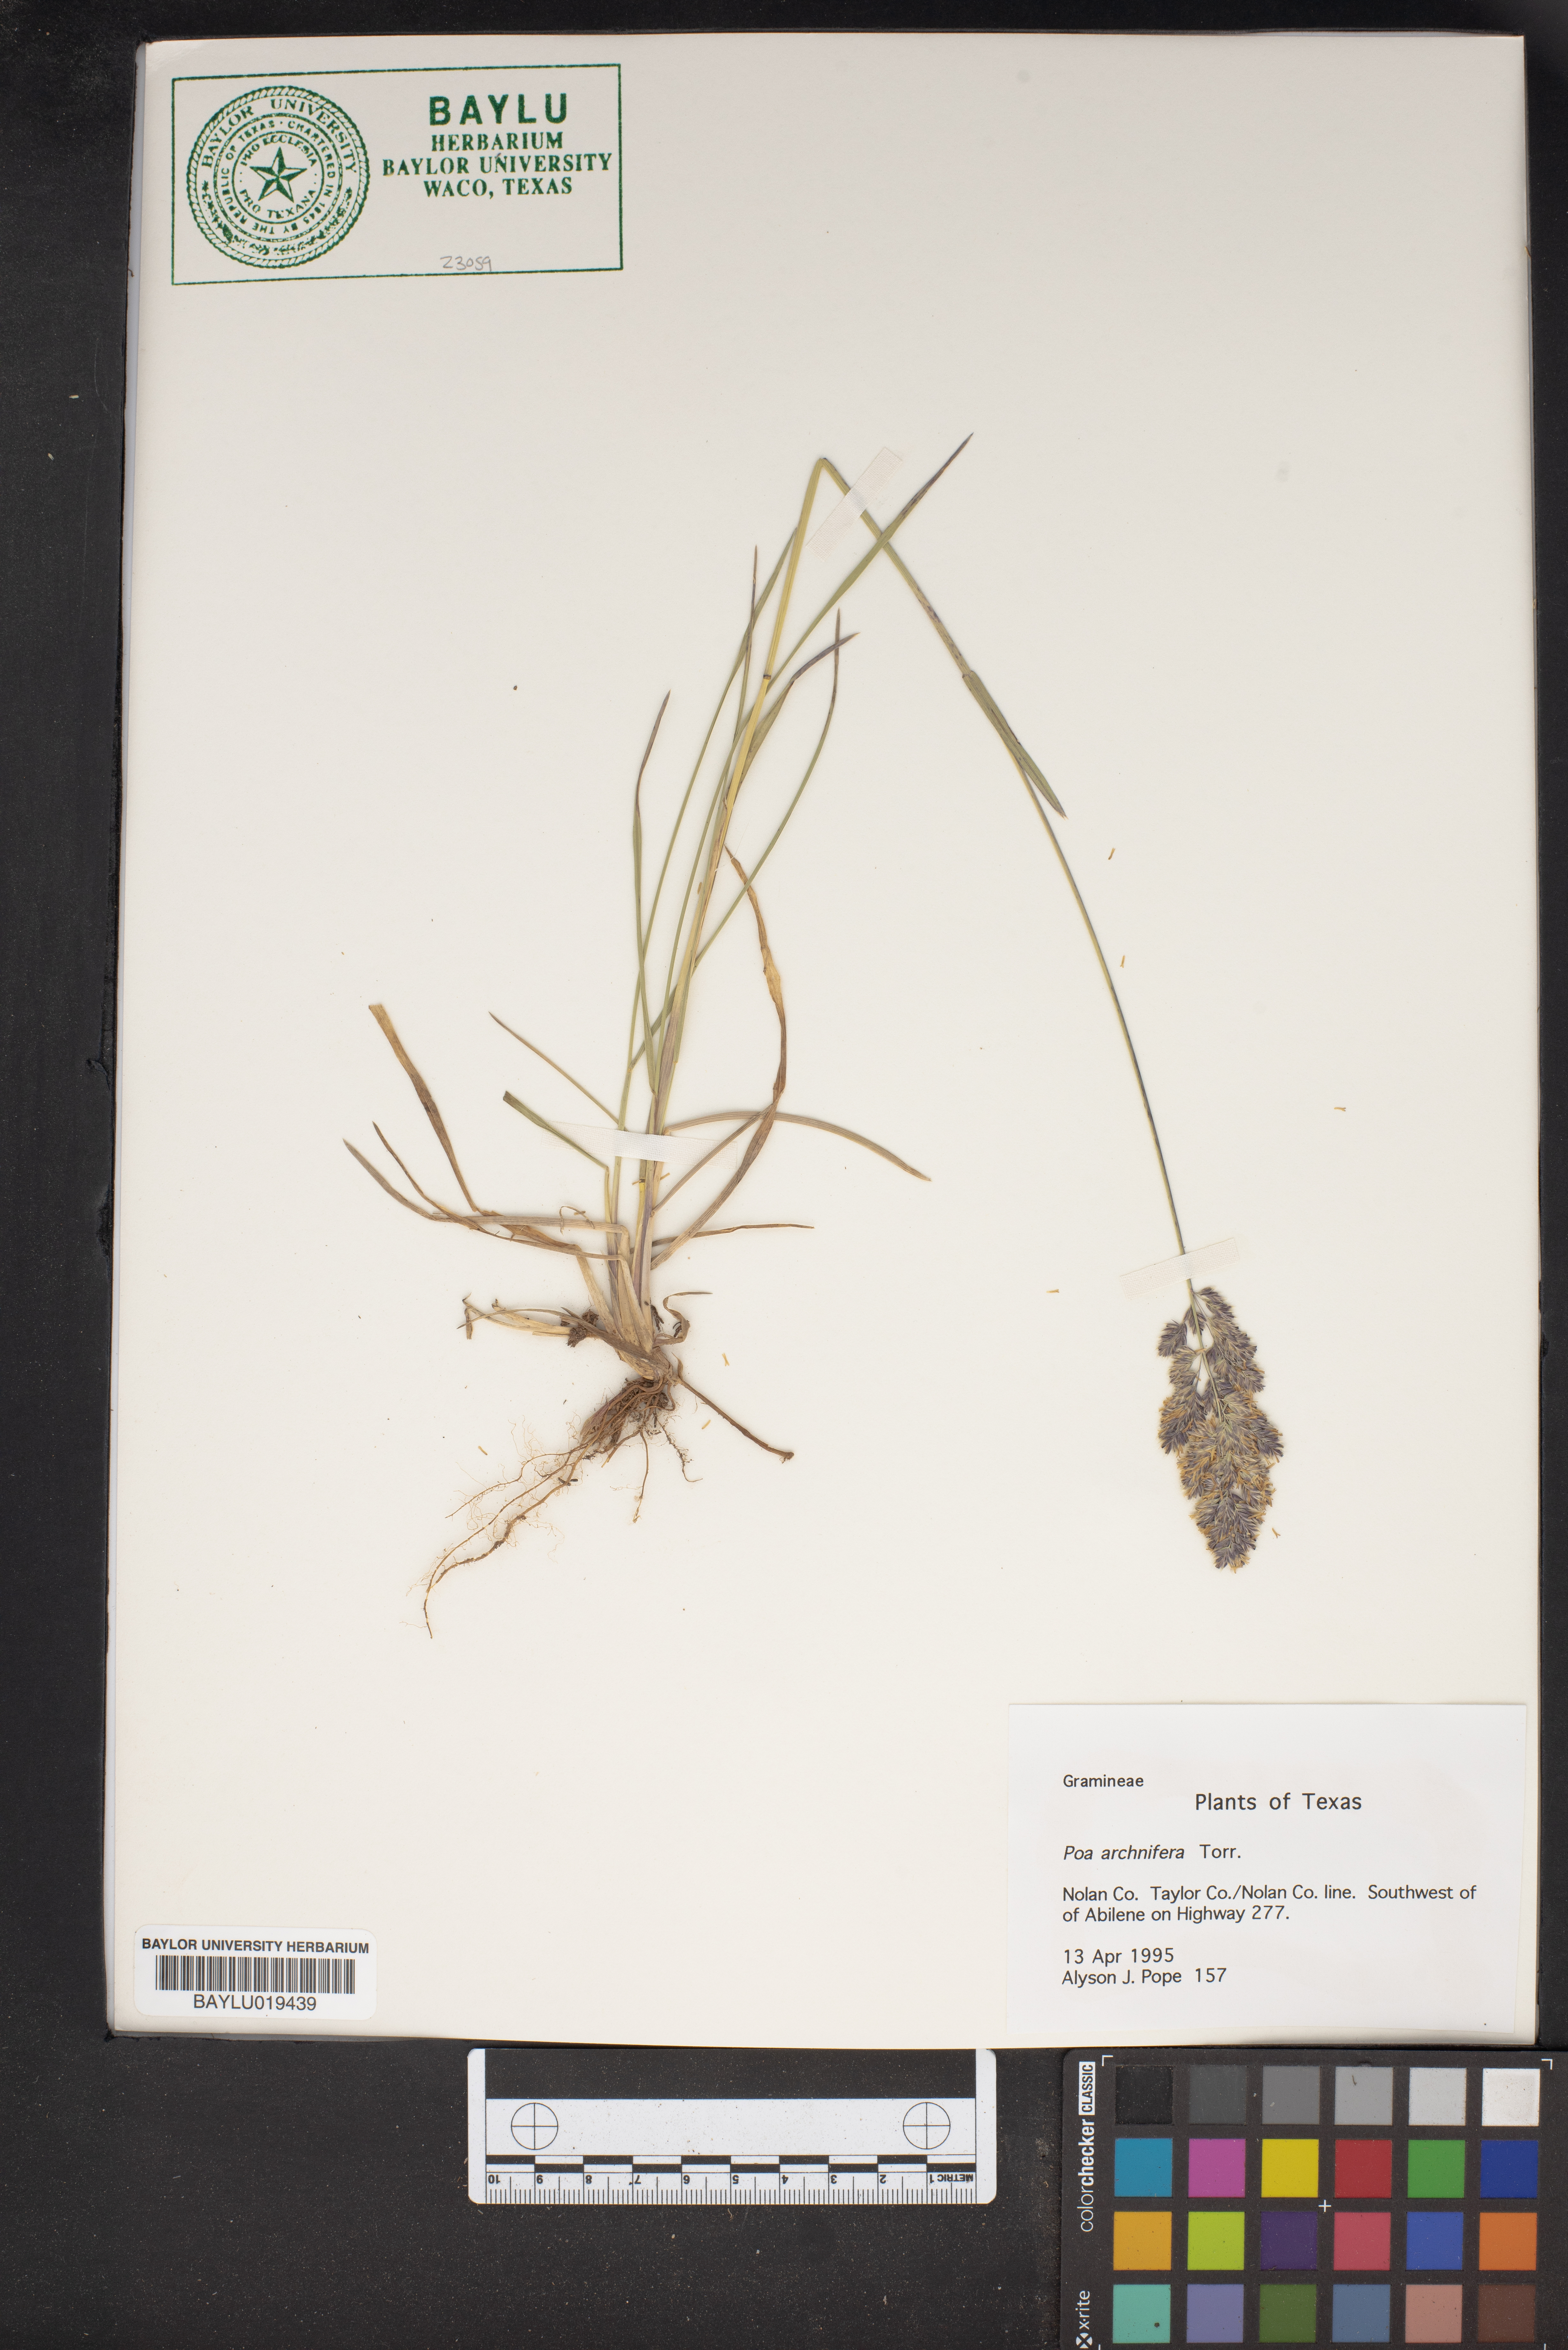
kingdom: Plantae
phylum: Tracheophyta
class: Liliopsida
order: Poales
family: Poaceae
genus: Poa
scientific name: Poa arachnifera
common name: Texas bluegrass
